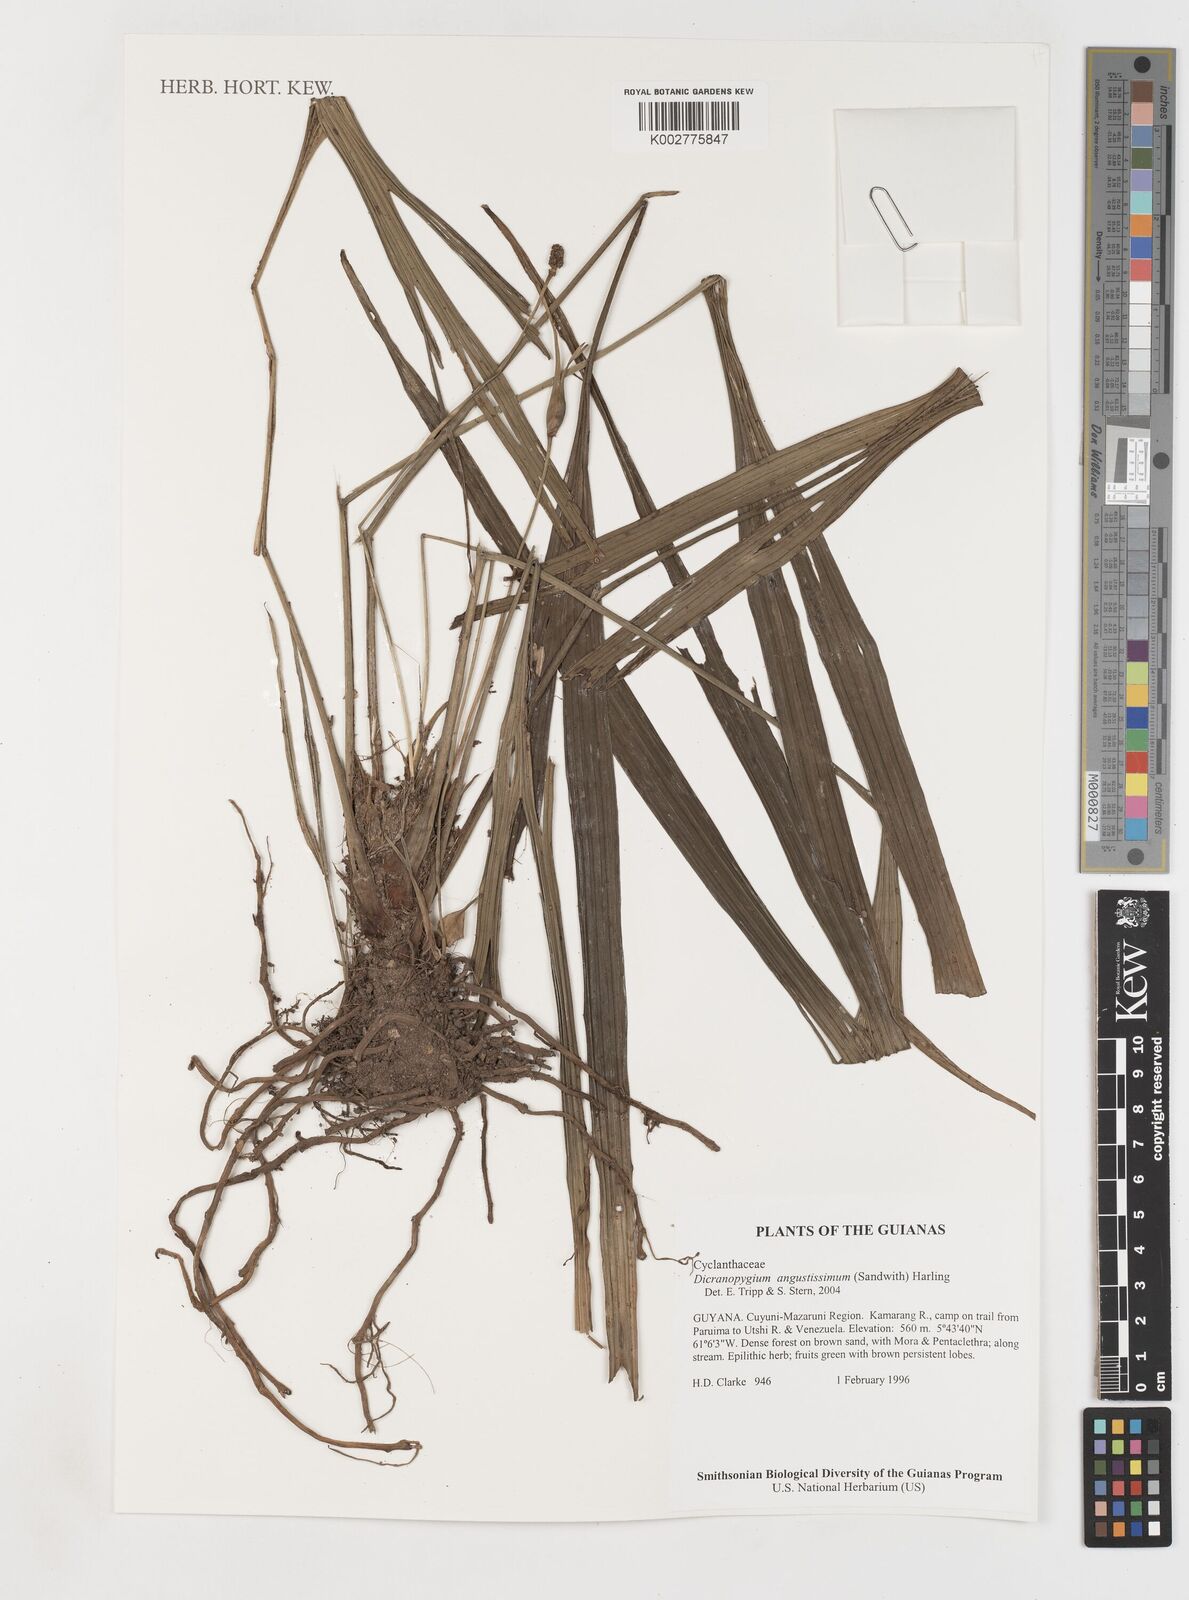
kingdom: Plantae
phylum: Tracheophyta
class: Liliopsida
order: Pandanales
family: Cyclanthaceae
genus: Dicranopygium
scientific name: Dicranopygium angustissimum
